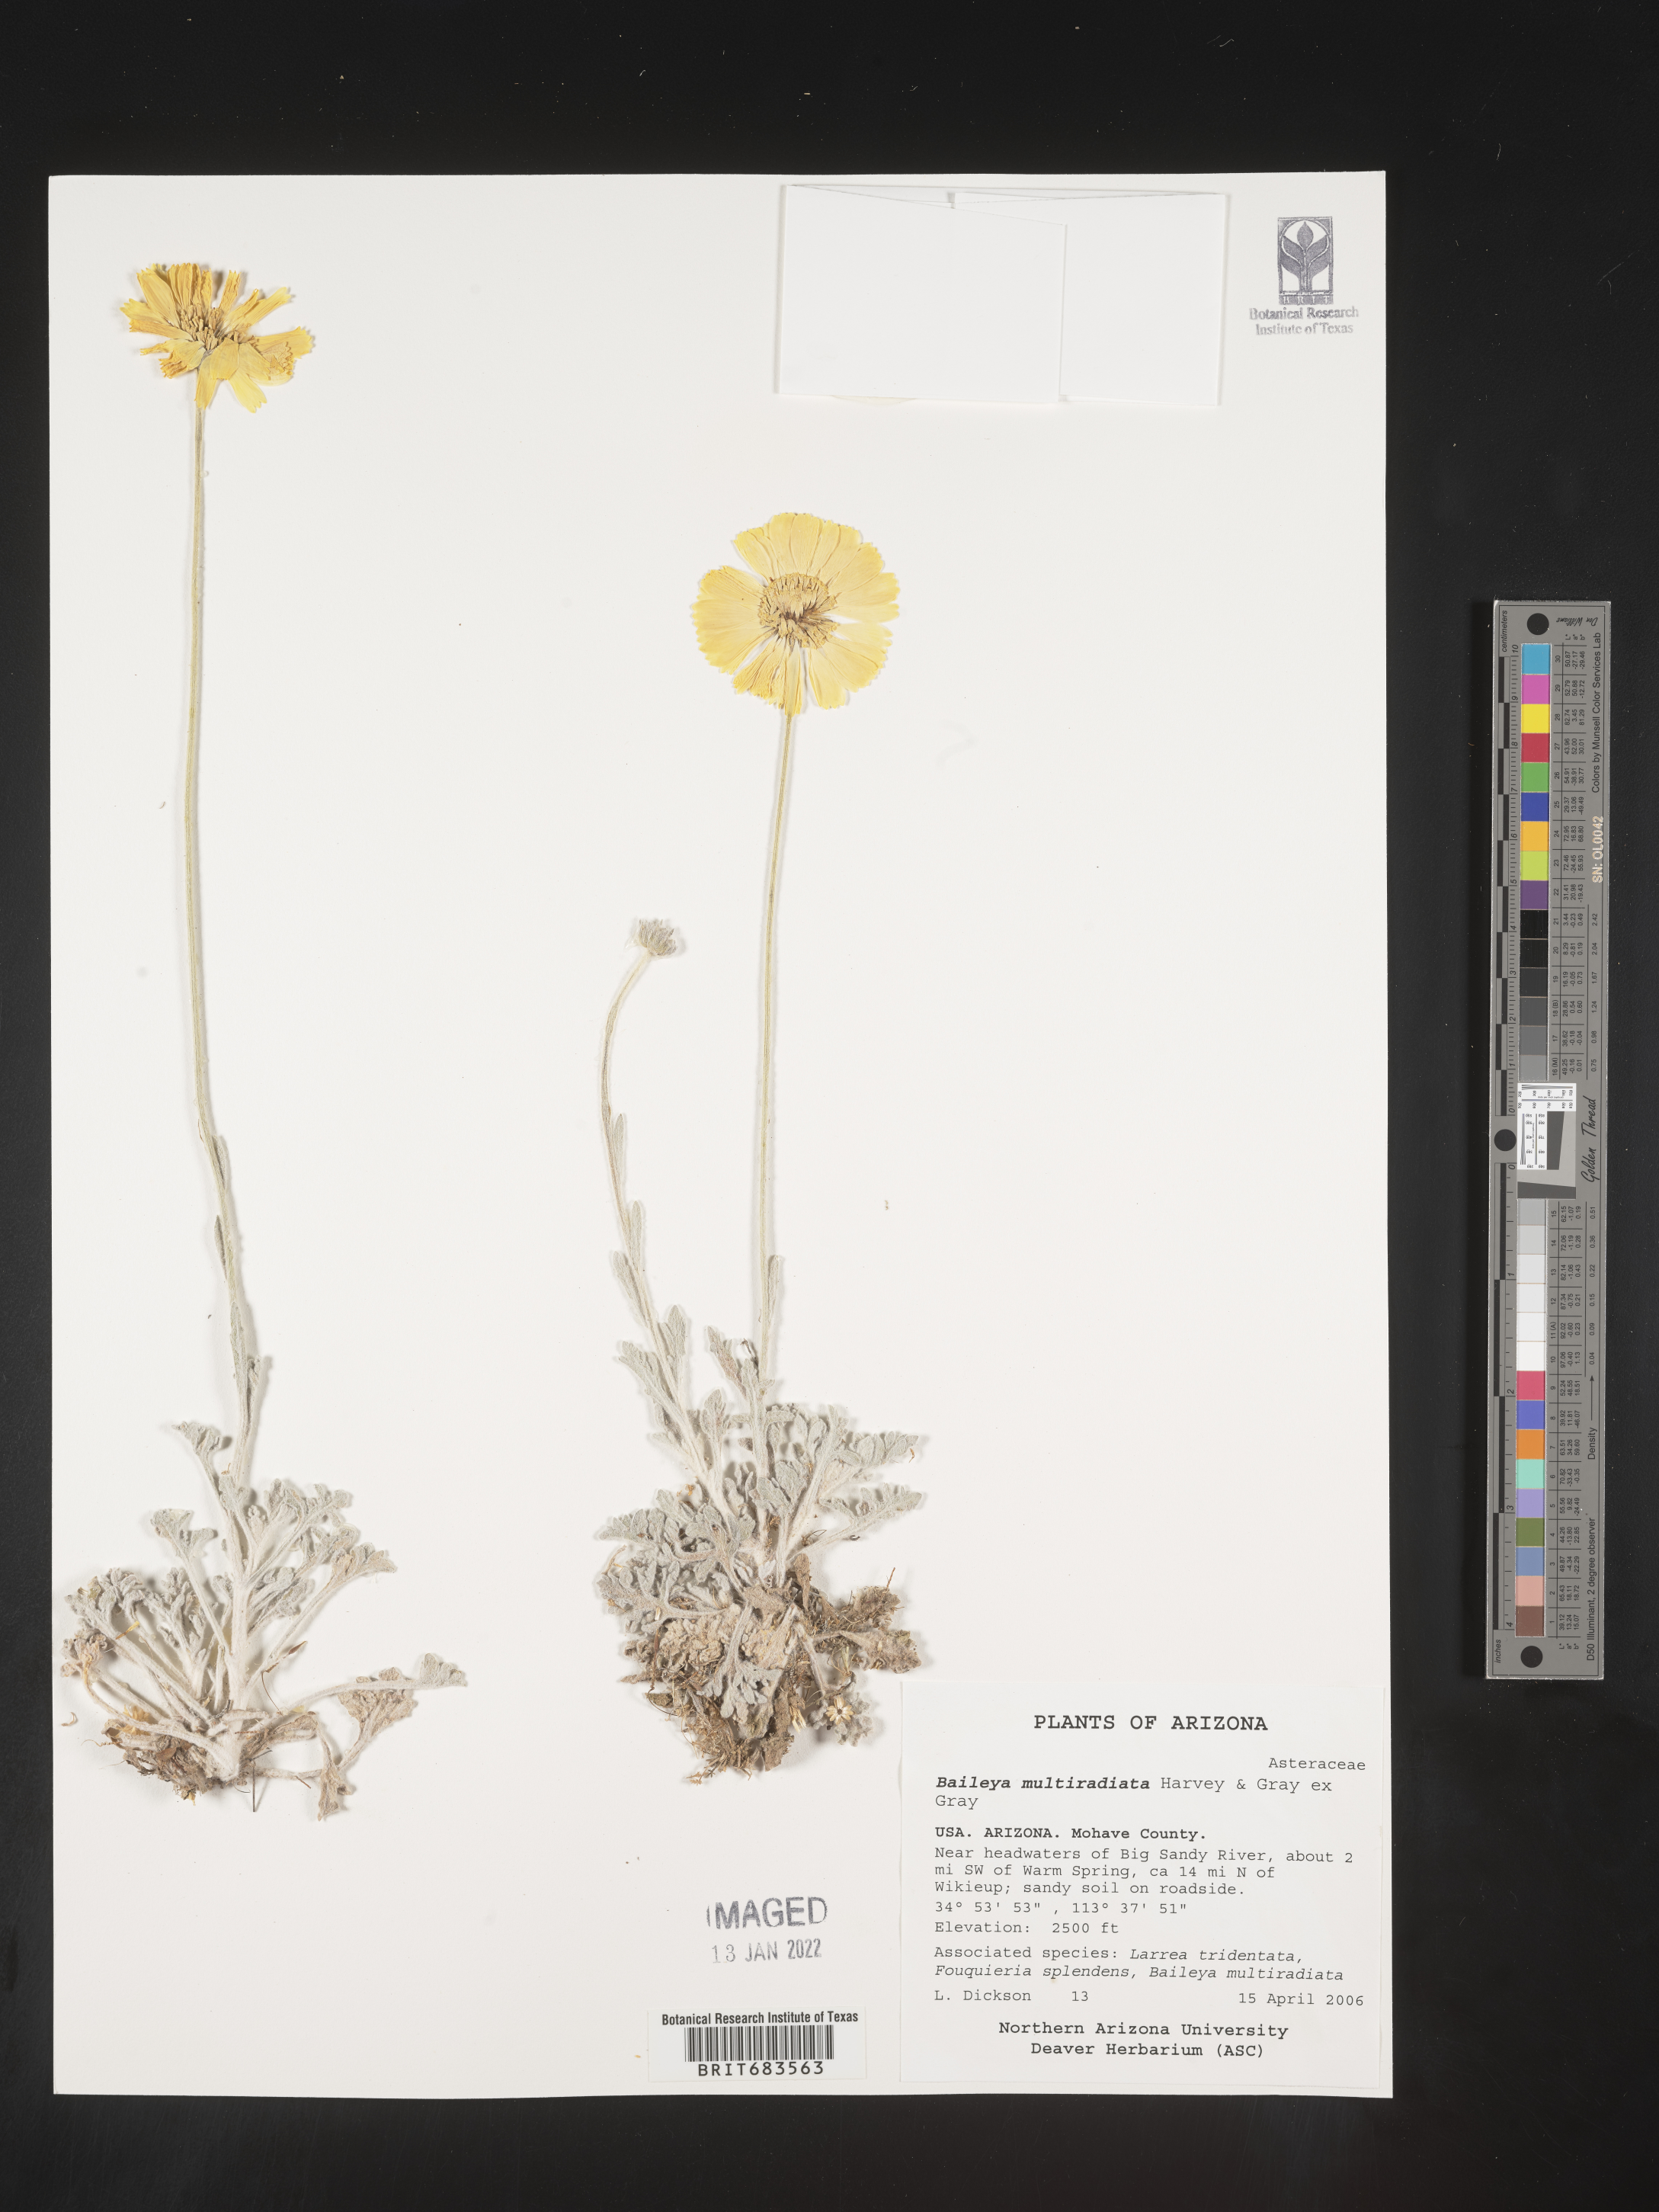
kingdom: Plantae
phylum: Tracheophyta
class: Magnoliopsida
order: Asterales
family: Asteraceae
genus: Baileya
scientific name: Baileya multiradiata
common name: Desert-marigold
